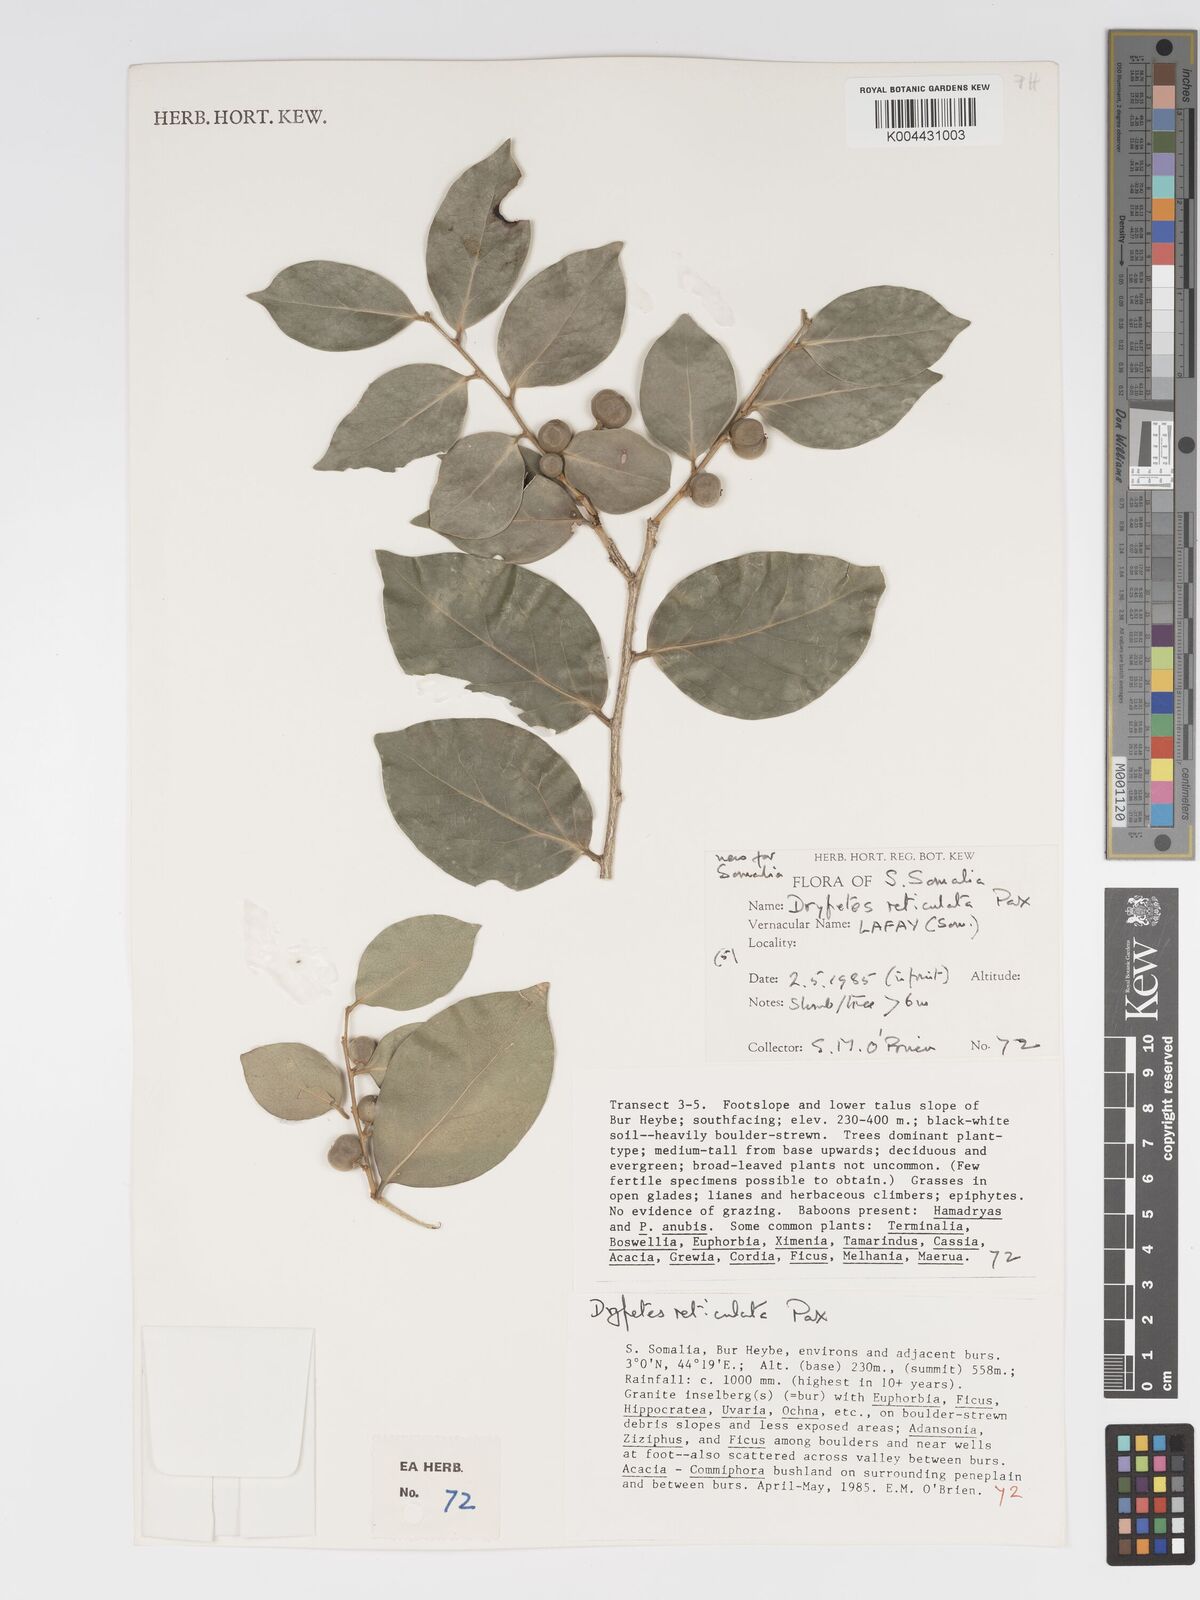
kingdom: Plantae
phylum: Tracheophyta
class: Magnoliopsida
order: Malpighiales
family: Putranjivaceae
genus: Drypetes
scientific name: Drypetes reticulata
